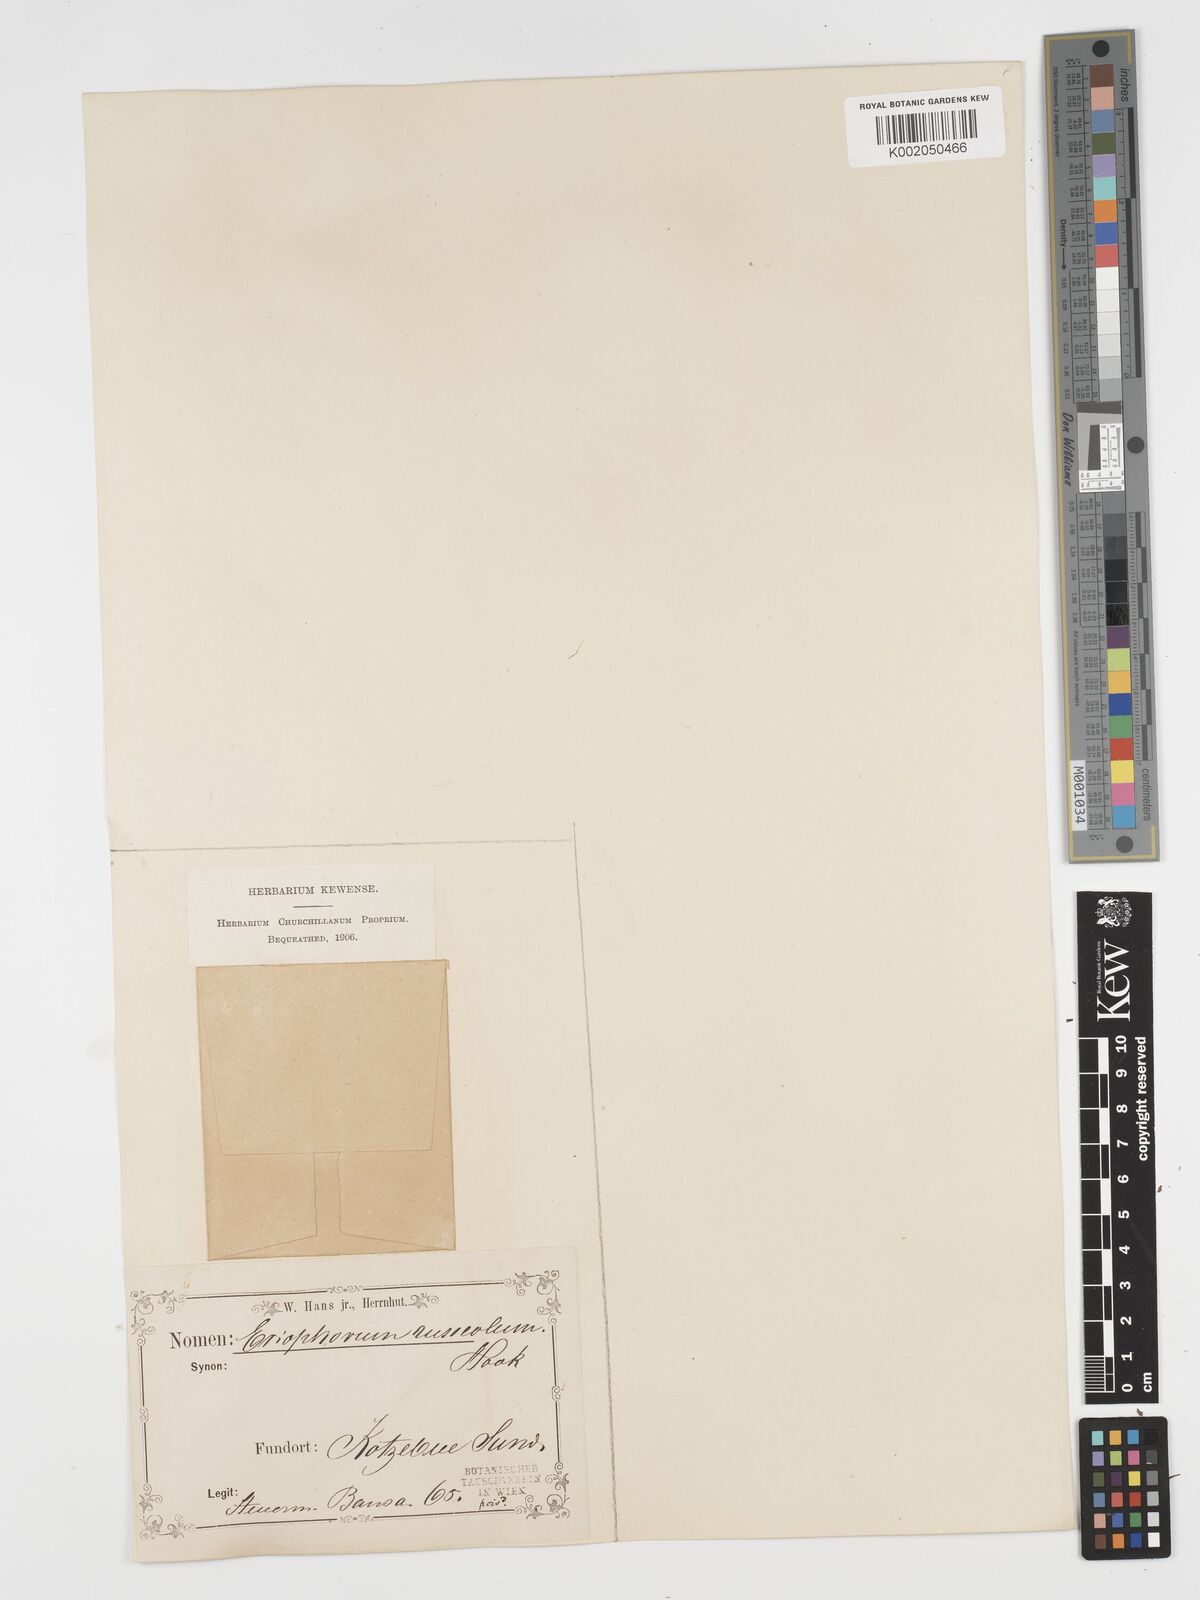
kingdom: Plantae
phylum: Tracheophyta
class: Liliopsida
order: Poales
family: Cyperaceae
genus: Eriophorum
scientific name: Eriophorum scheuchzeri
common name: Scheuchzer's cottongrass
